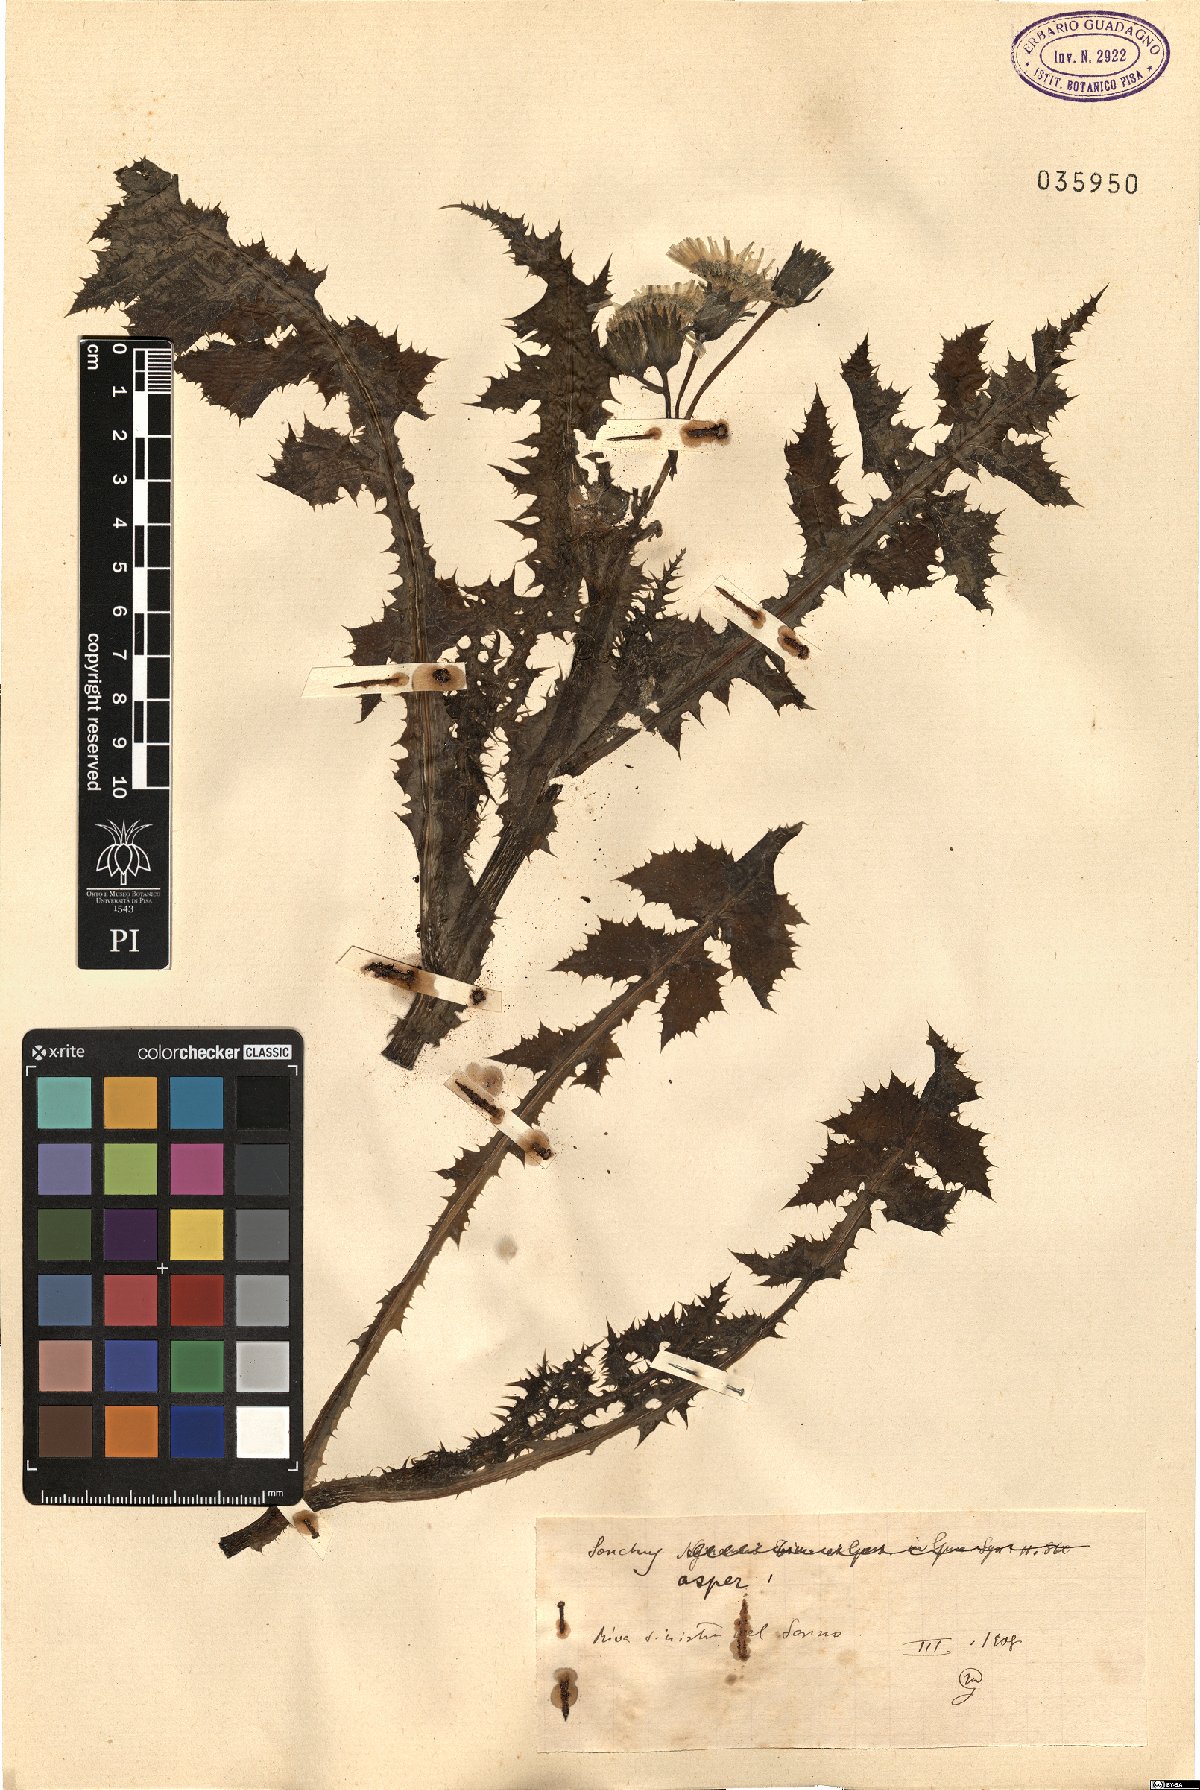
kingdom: Plantae
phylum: Tracheophyta
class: Magnoliopsida
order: Asterales
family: Asteraceae
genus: Sonchus
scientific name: Sonchus asper
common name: Prickly sow-thistle
